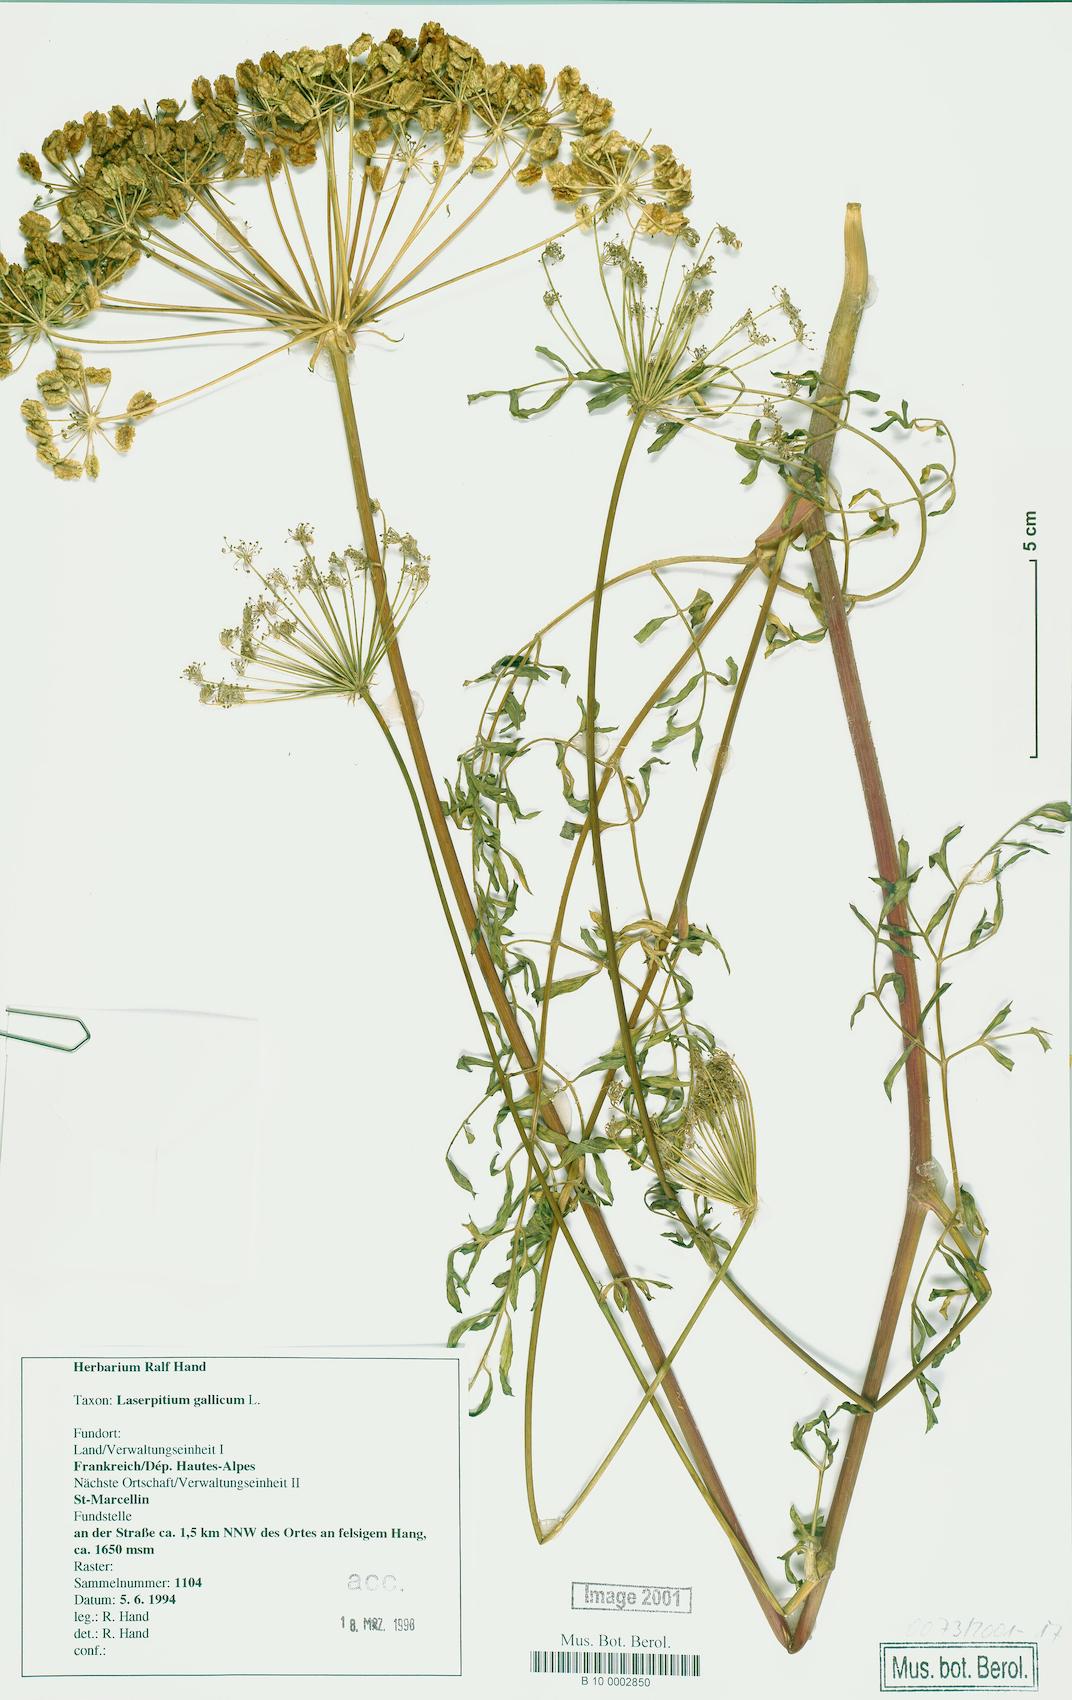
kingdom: Plantae
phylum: Tracheophyta
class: Magnoliopsida
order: Apiales
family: Apiaceae
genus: Laserpitium
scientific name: Laserpitium gallicum
